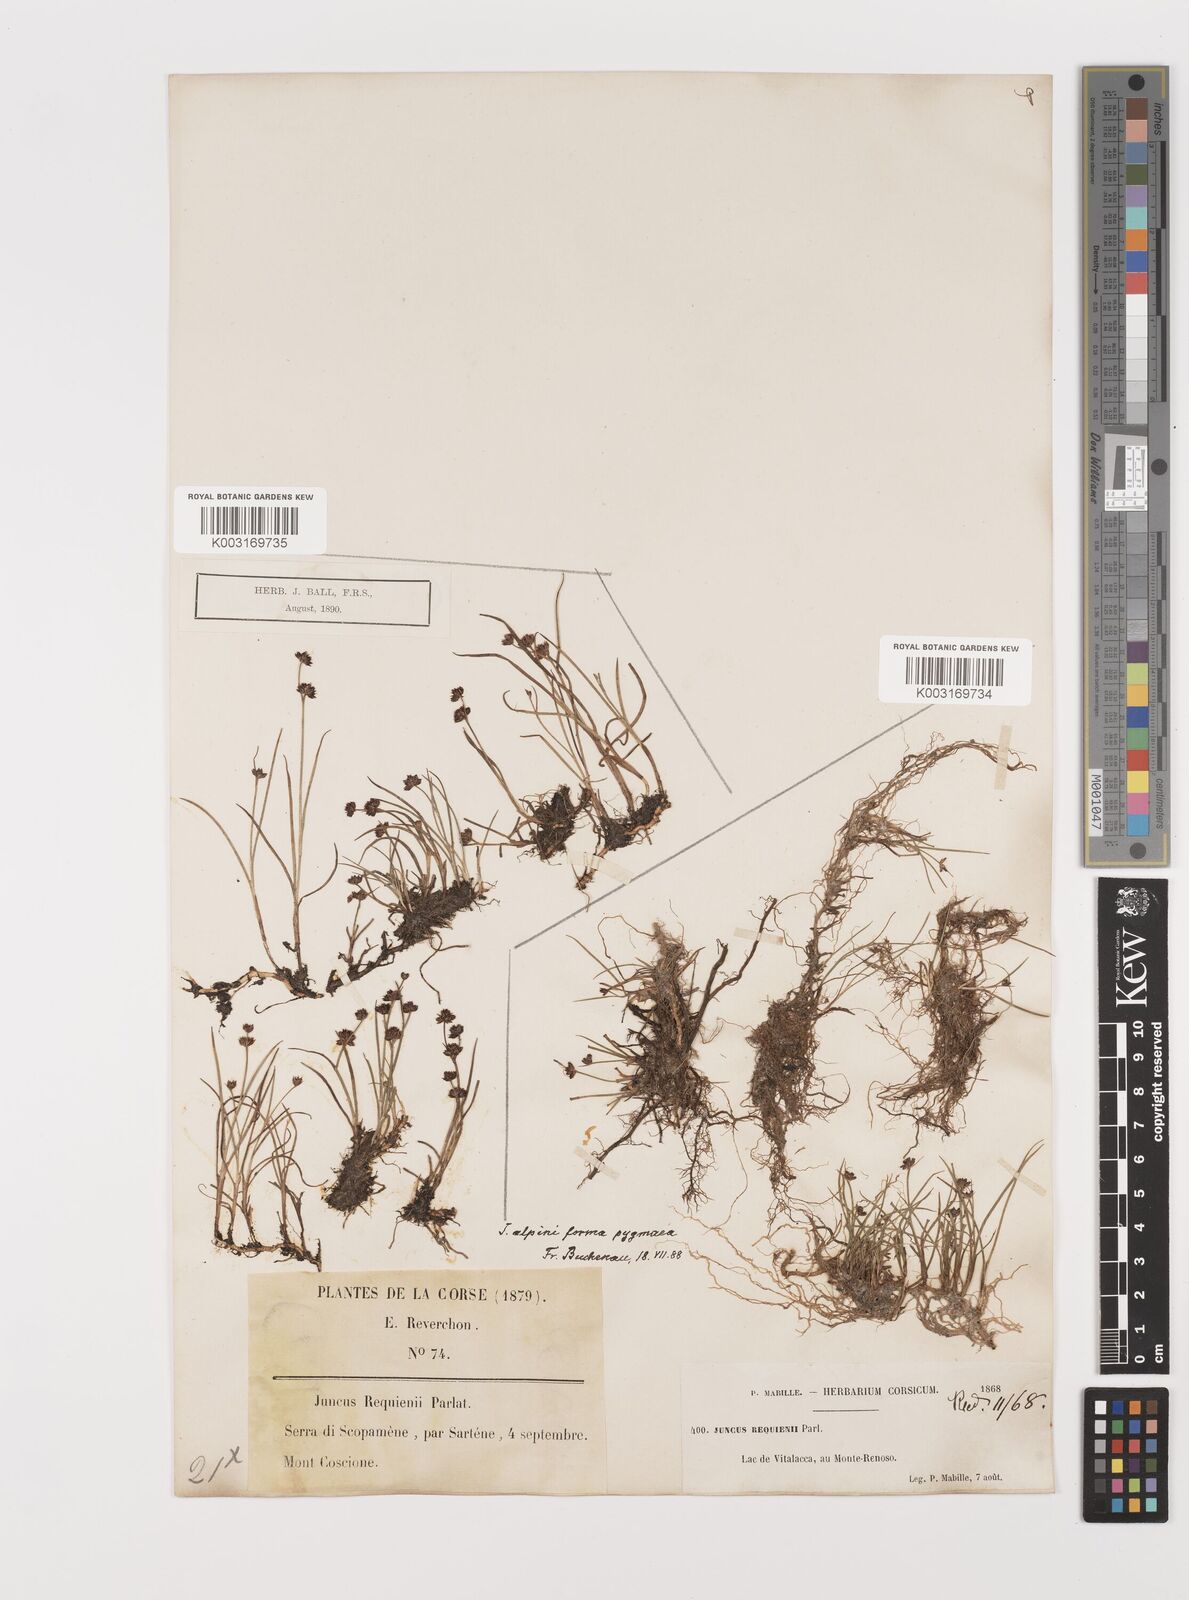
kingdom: Plantae
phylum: Tracheophyta
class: Liliopsida
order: Poales
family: Juncaceae
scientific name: Juncaceae
